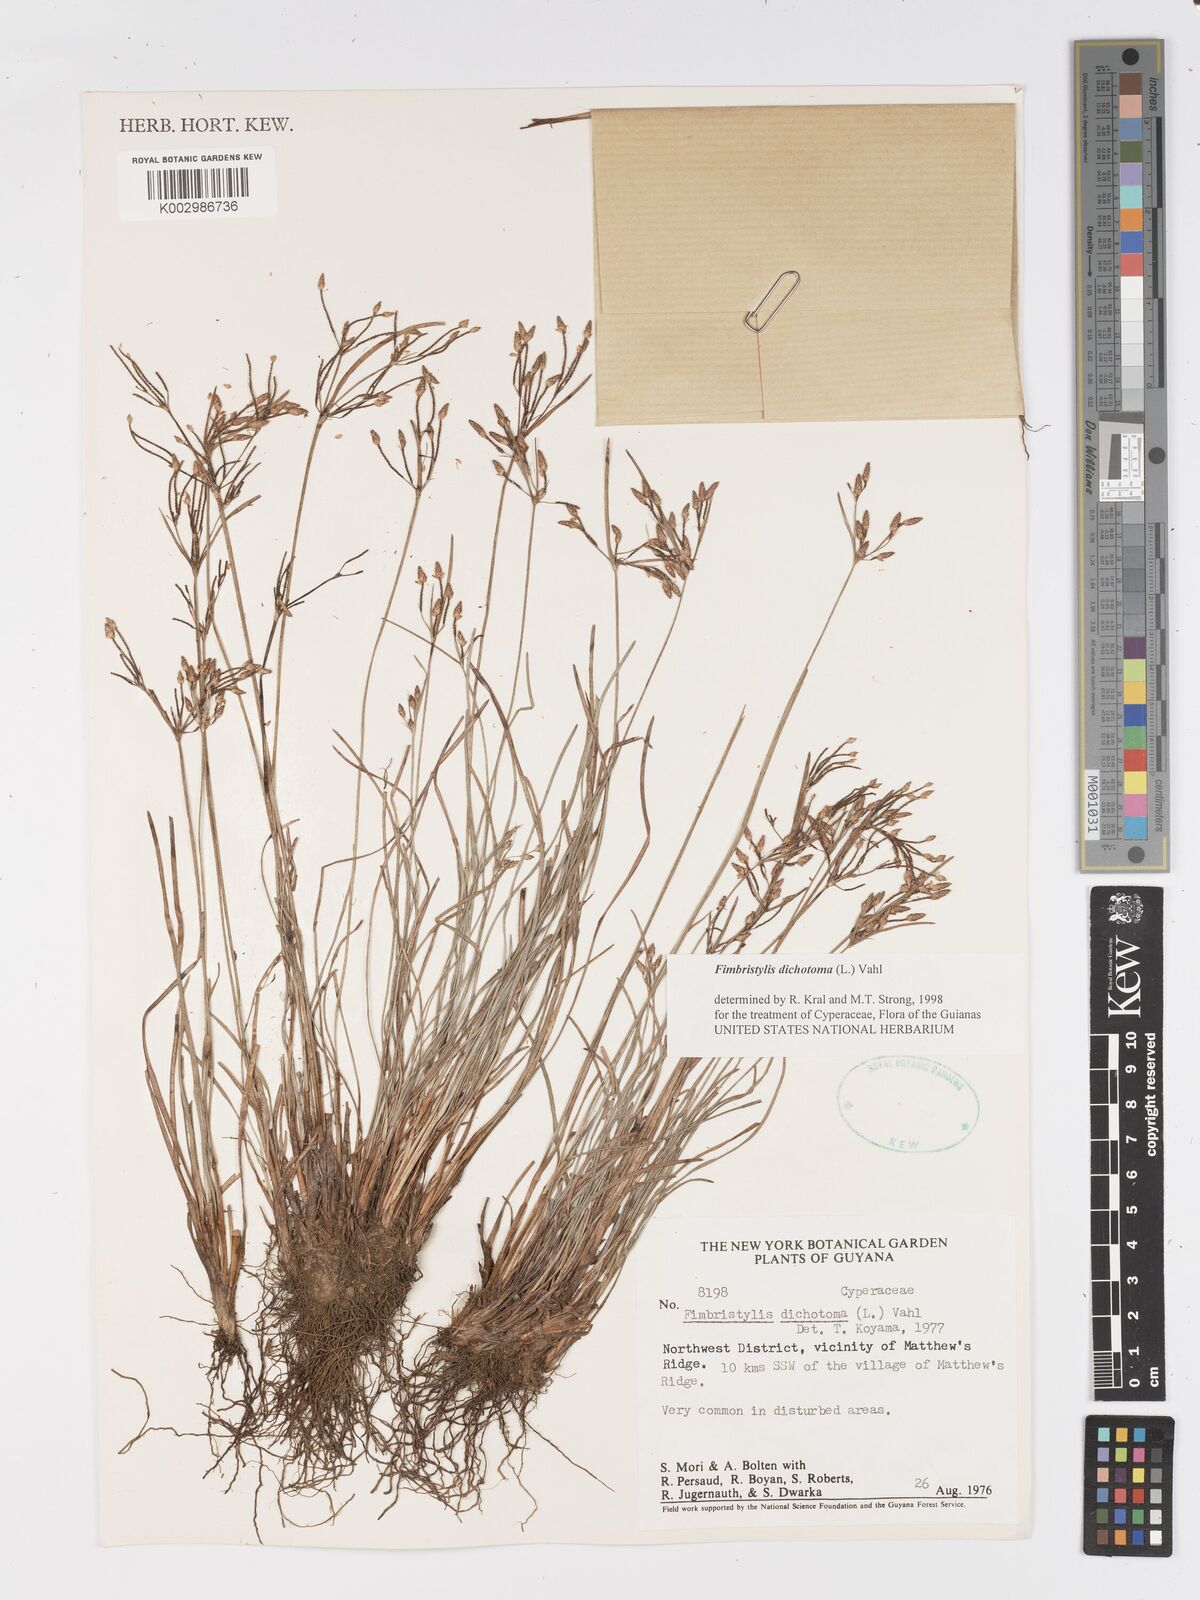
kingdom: Plantae
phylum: Tracheophyta
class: Liliopsida
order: Poales
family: Cyperaceae
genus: Fimbristylis
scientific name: Fimbristylis dichotoma
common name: Forked fimbry
